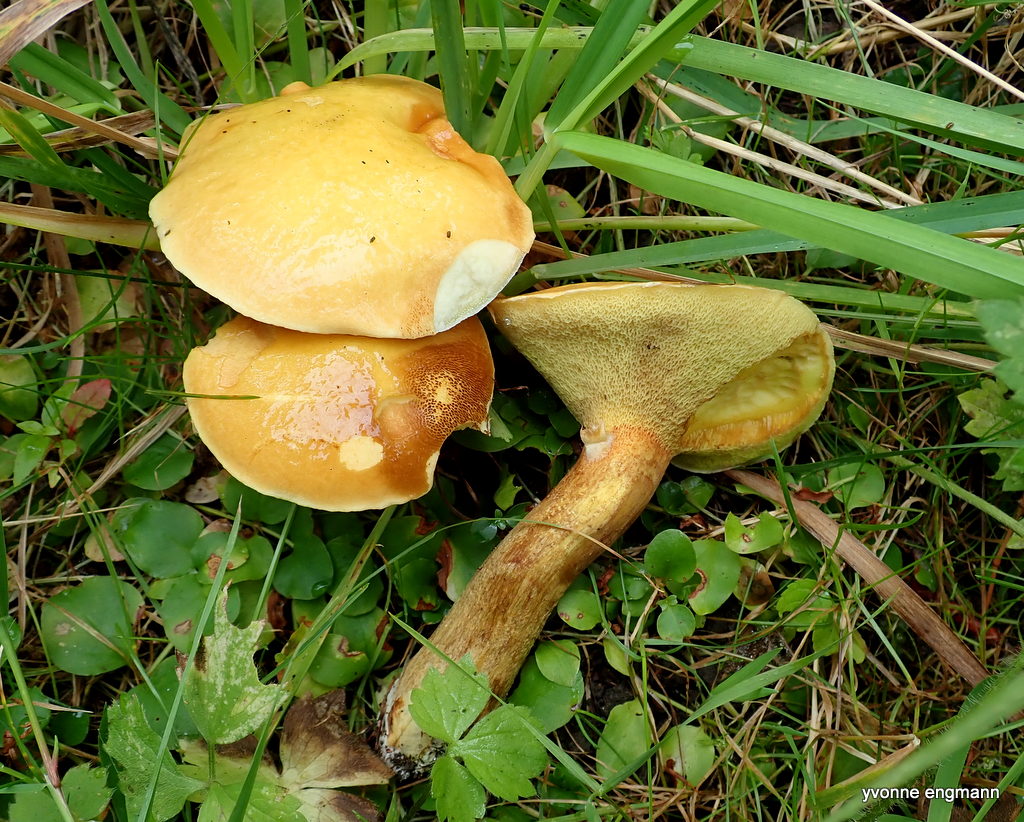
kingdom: Fungi
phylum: Basidiomycota
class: Agaricomycetes
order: Boletales
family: Suillaceae
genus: Suillus
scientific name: Suillus grevillei
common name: lærke-slimrørhat
